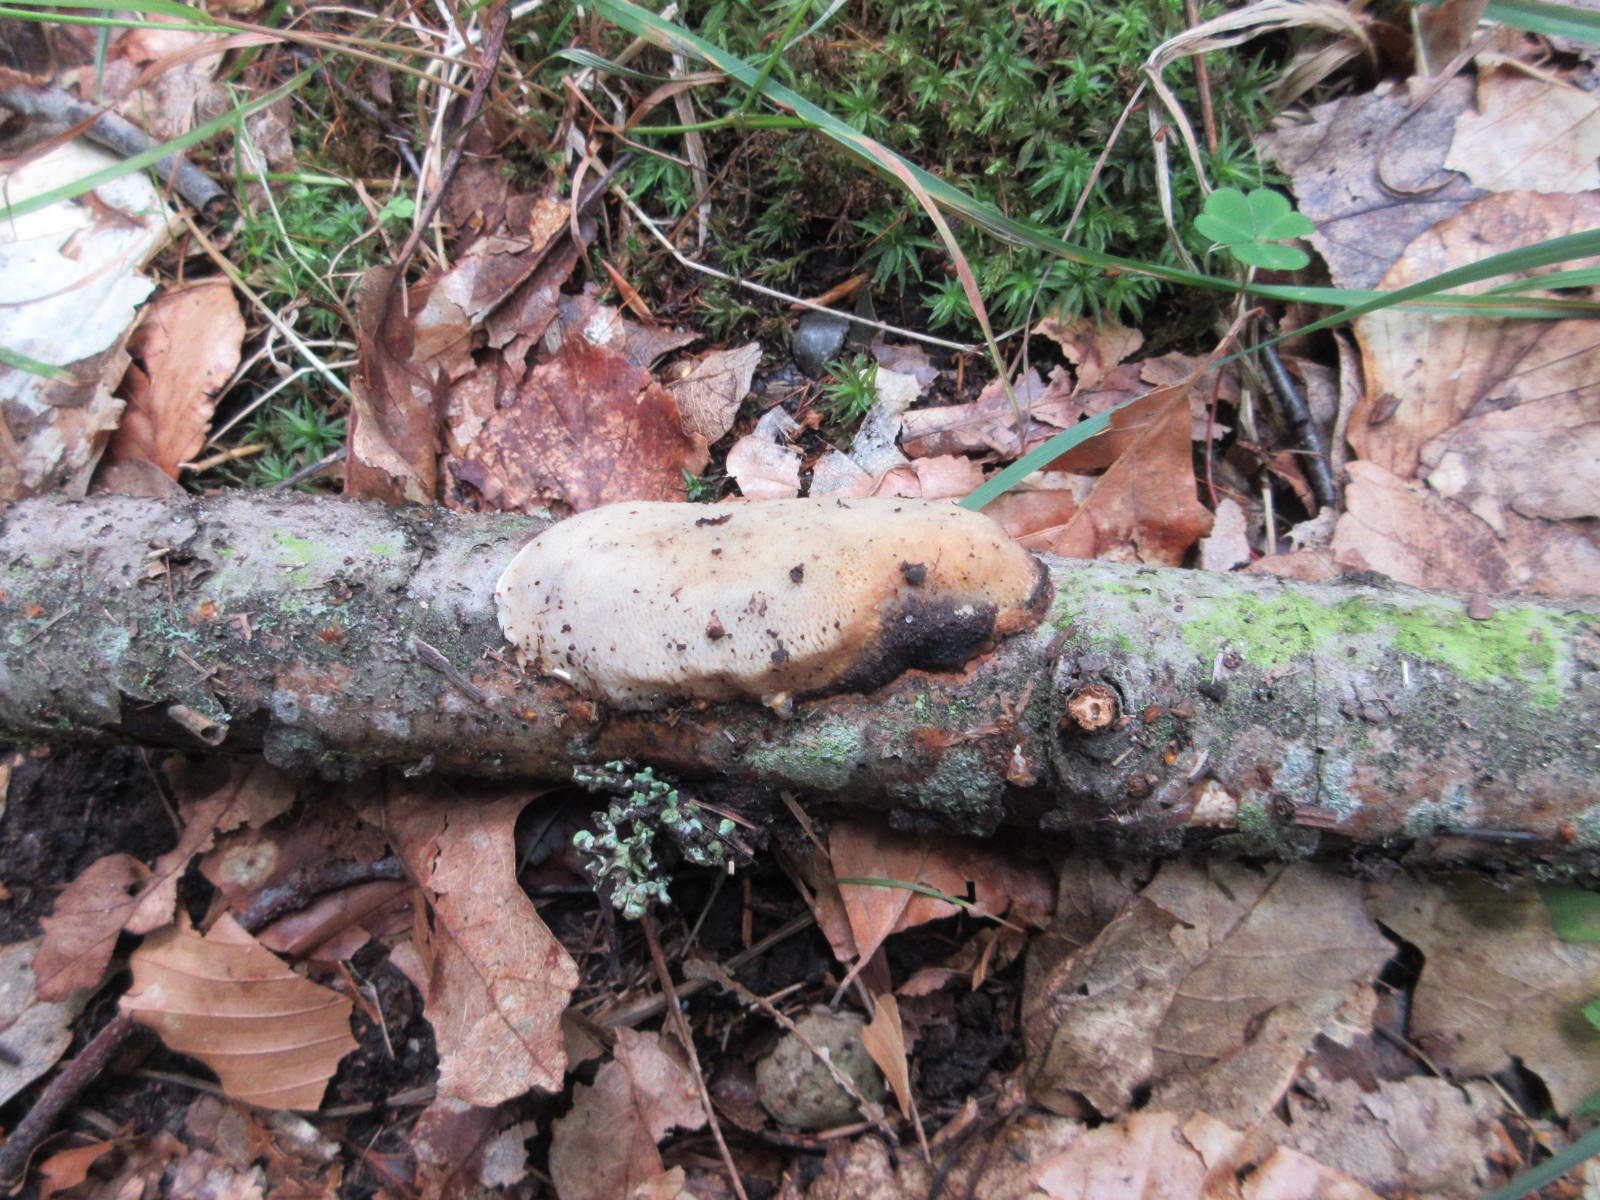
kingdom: Fungi
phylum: Basidiomycota
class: Agaricomycetes
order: Polyporales
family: Polyporaceae
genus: Szczepkamyces
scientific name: Szczepkamyces campestris
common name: hasselporesvamp
